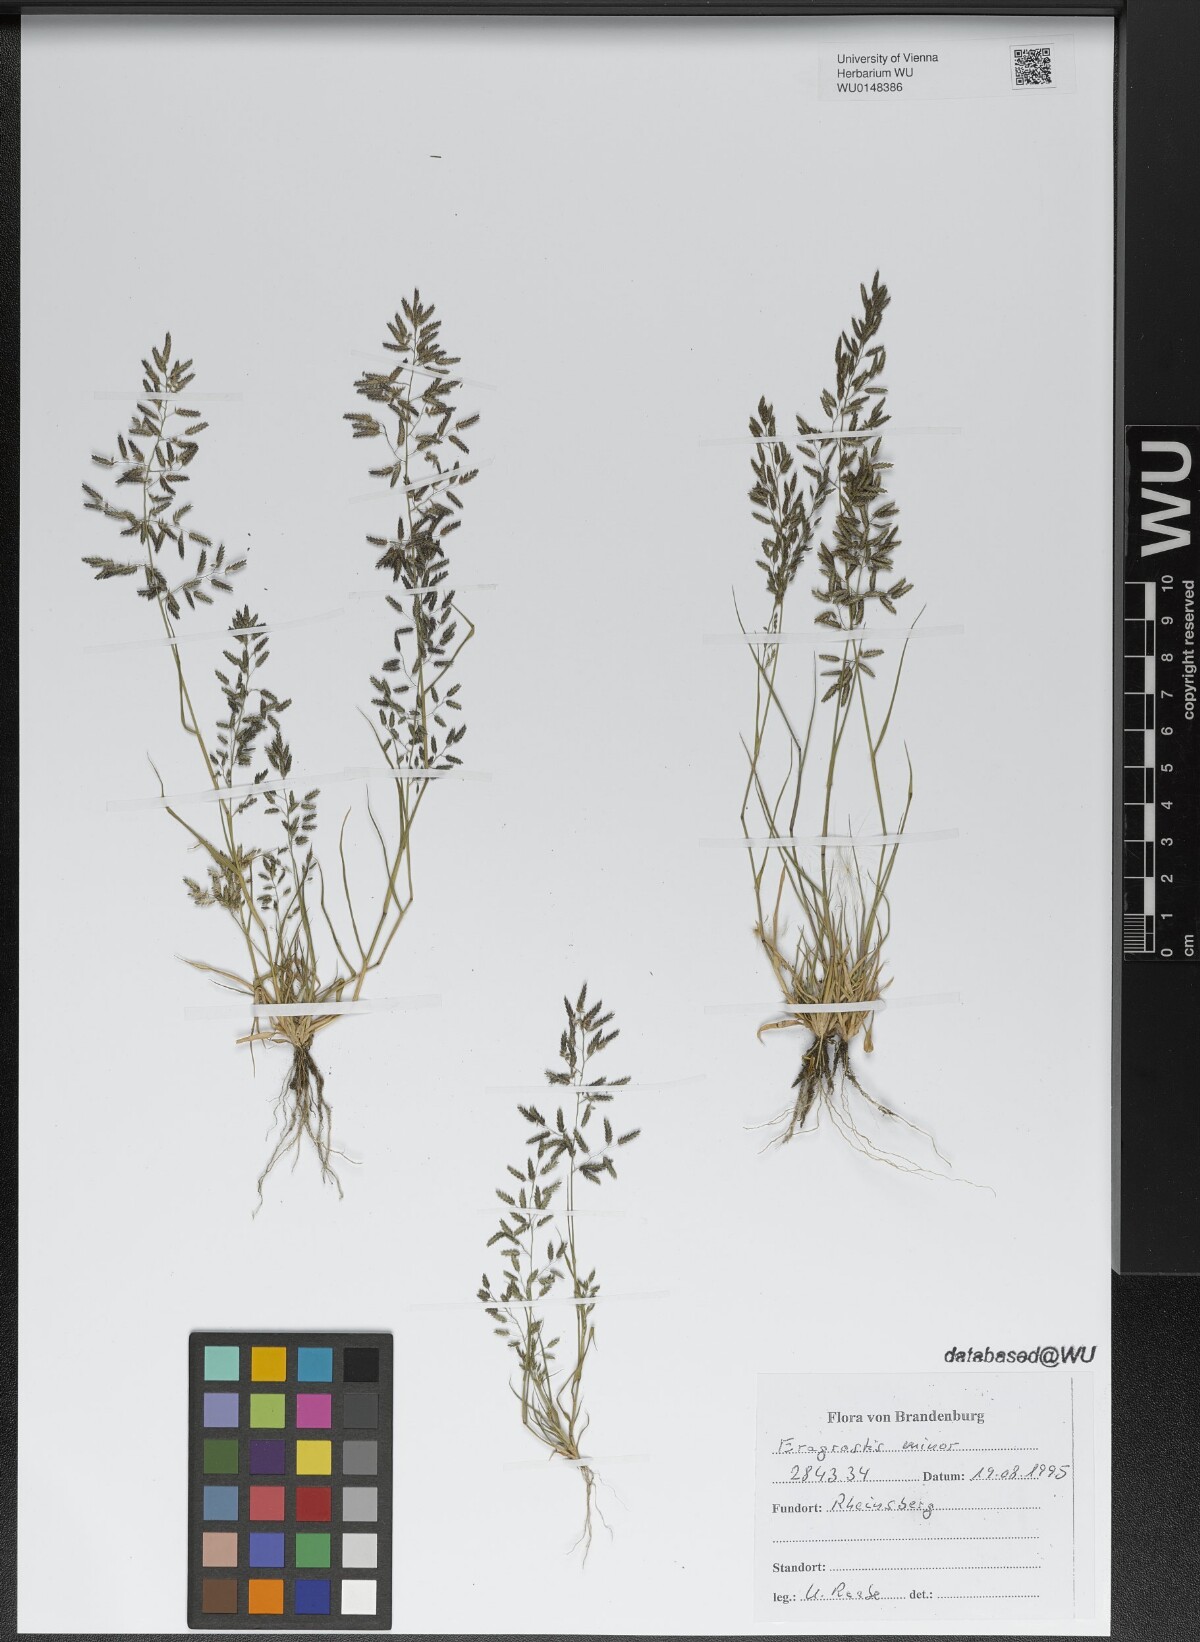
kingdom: Plantae
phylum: Tracheophyta
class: Liliopsida
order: Poales
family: Poaceae
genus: Eragrostis
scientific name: Eragrostis minor
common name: Small love-grass
